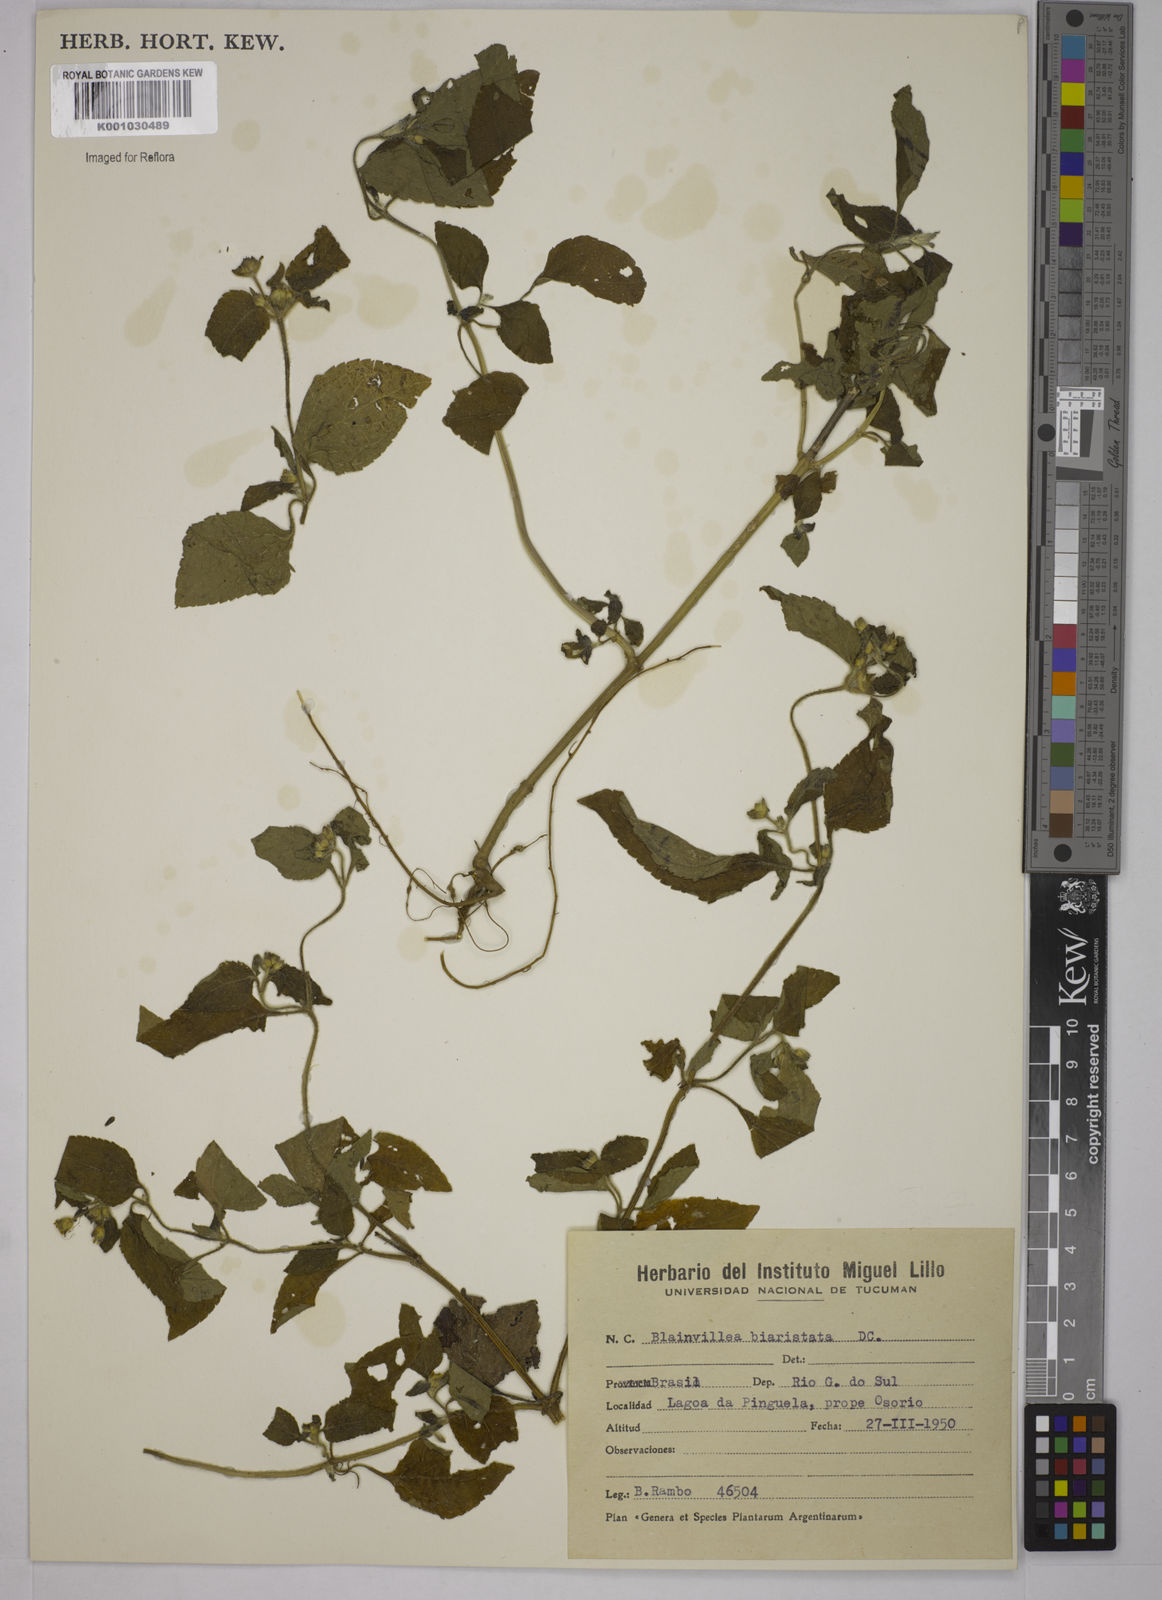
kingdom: Plantae
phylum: Tracheophyta
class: Magnoliopsida
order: Asterales
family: Asteraceae
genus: Blainvillea
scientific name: Blainvillea
